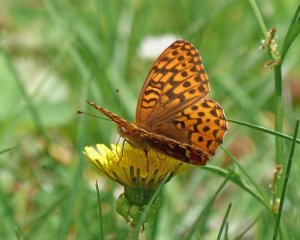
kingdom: Animalia
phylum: Arthropoda
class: Insecta
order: Lepidoptera
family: Nymphalidae
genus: Speyeria
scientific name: Speyeria zerene
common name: Zerene Fritillary
